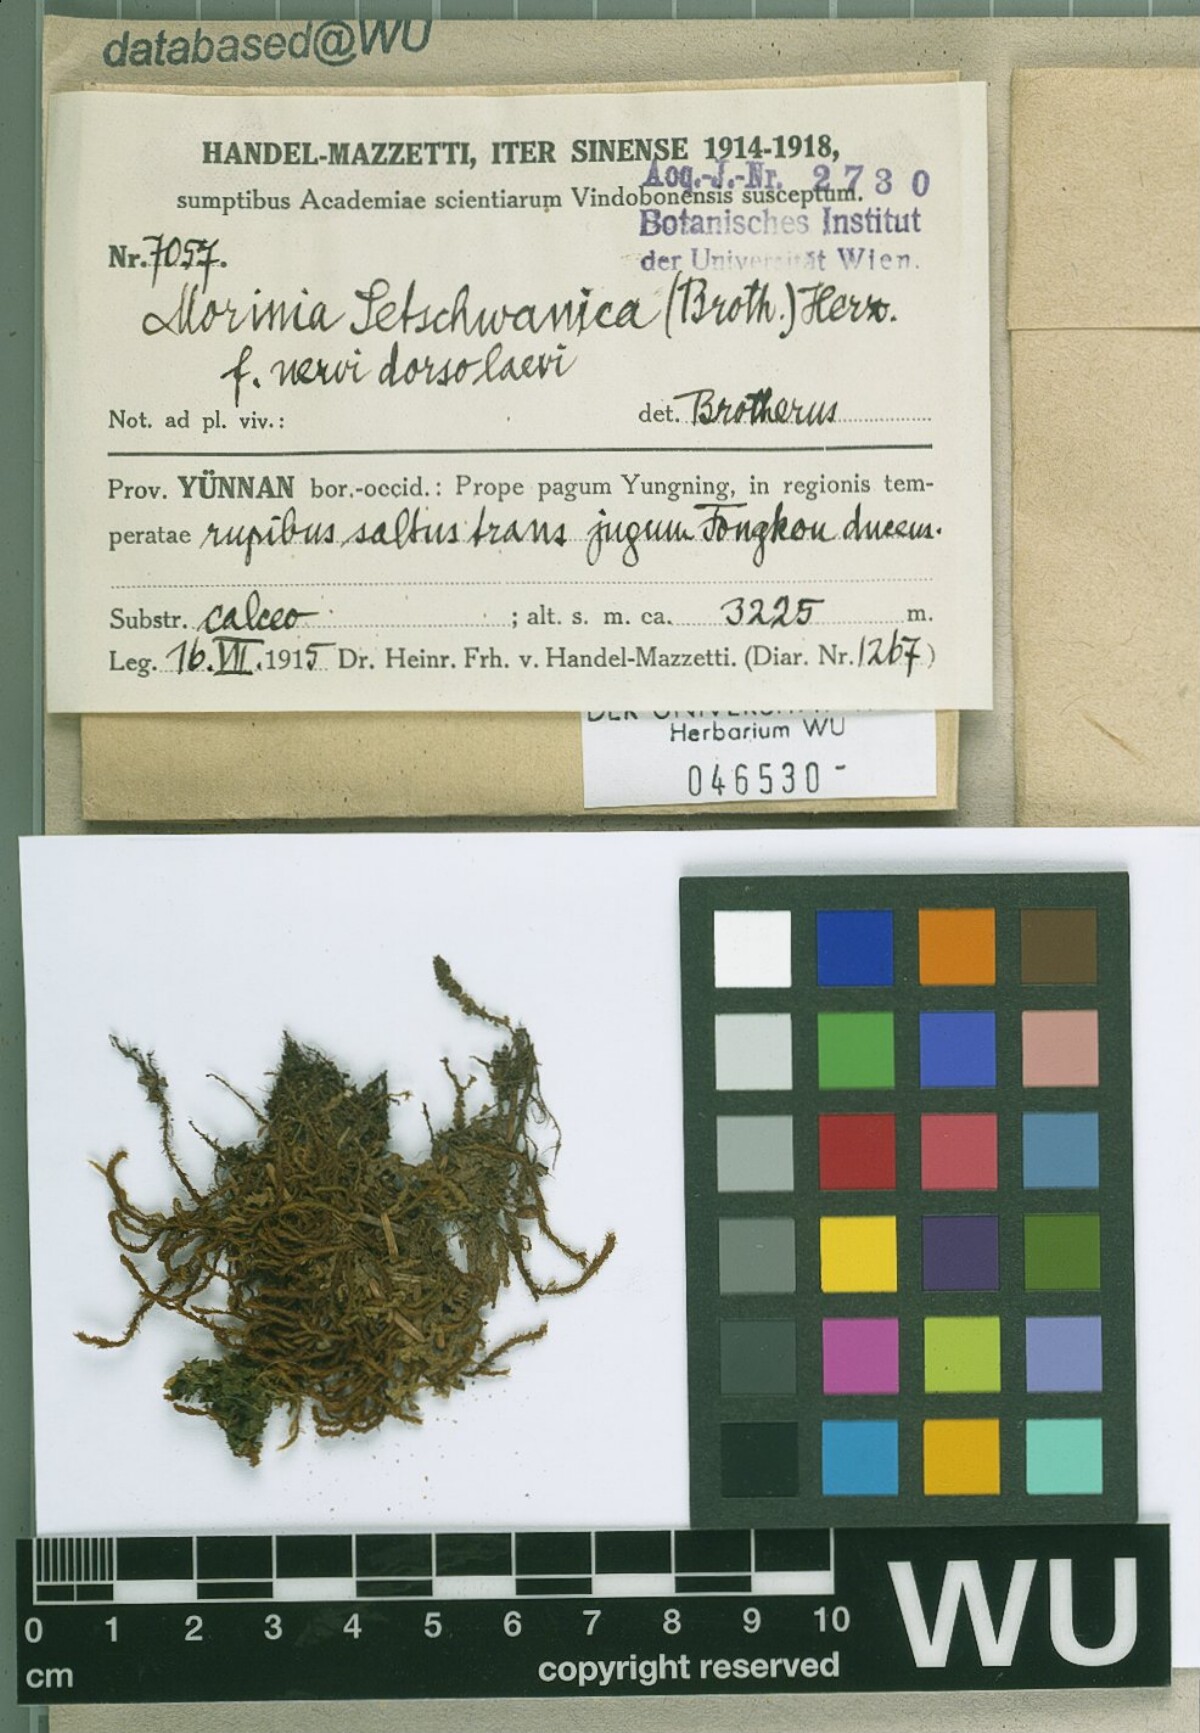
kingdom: Plantae
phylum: Bryophyta
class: Bryopsida
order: Pottiales
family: Pottiaceae
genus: Geheebia
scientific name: Geheebia erosodenticulata
